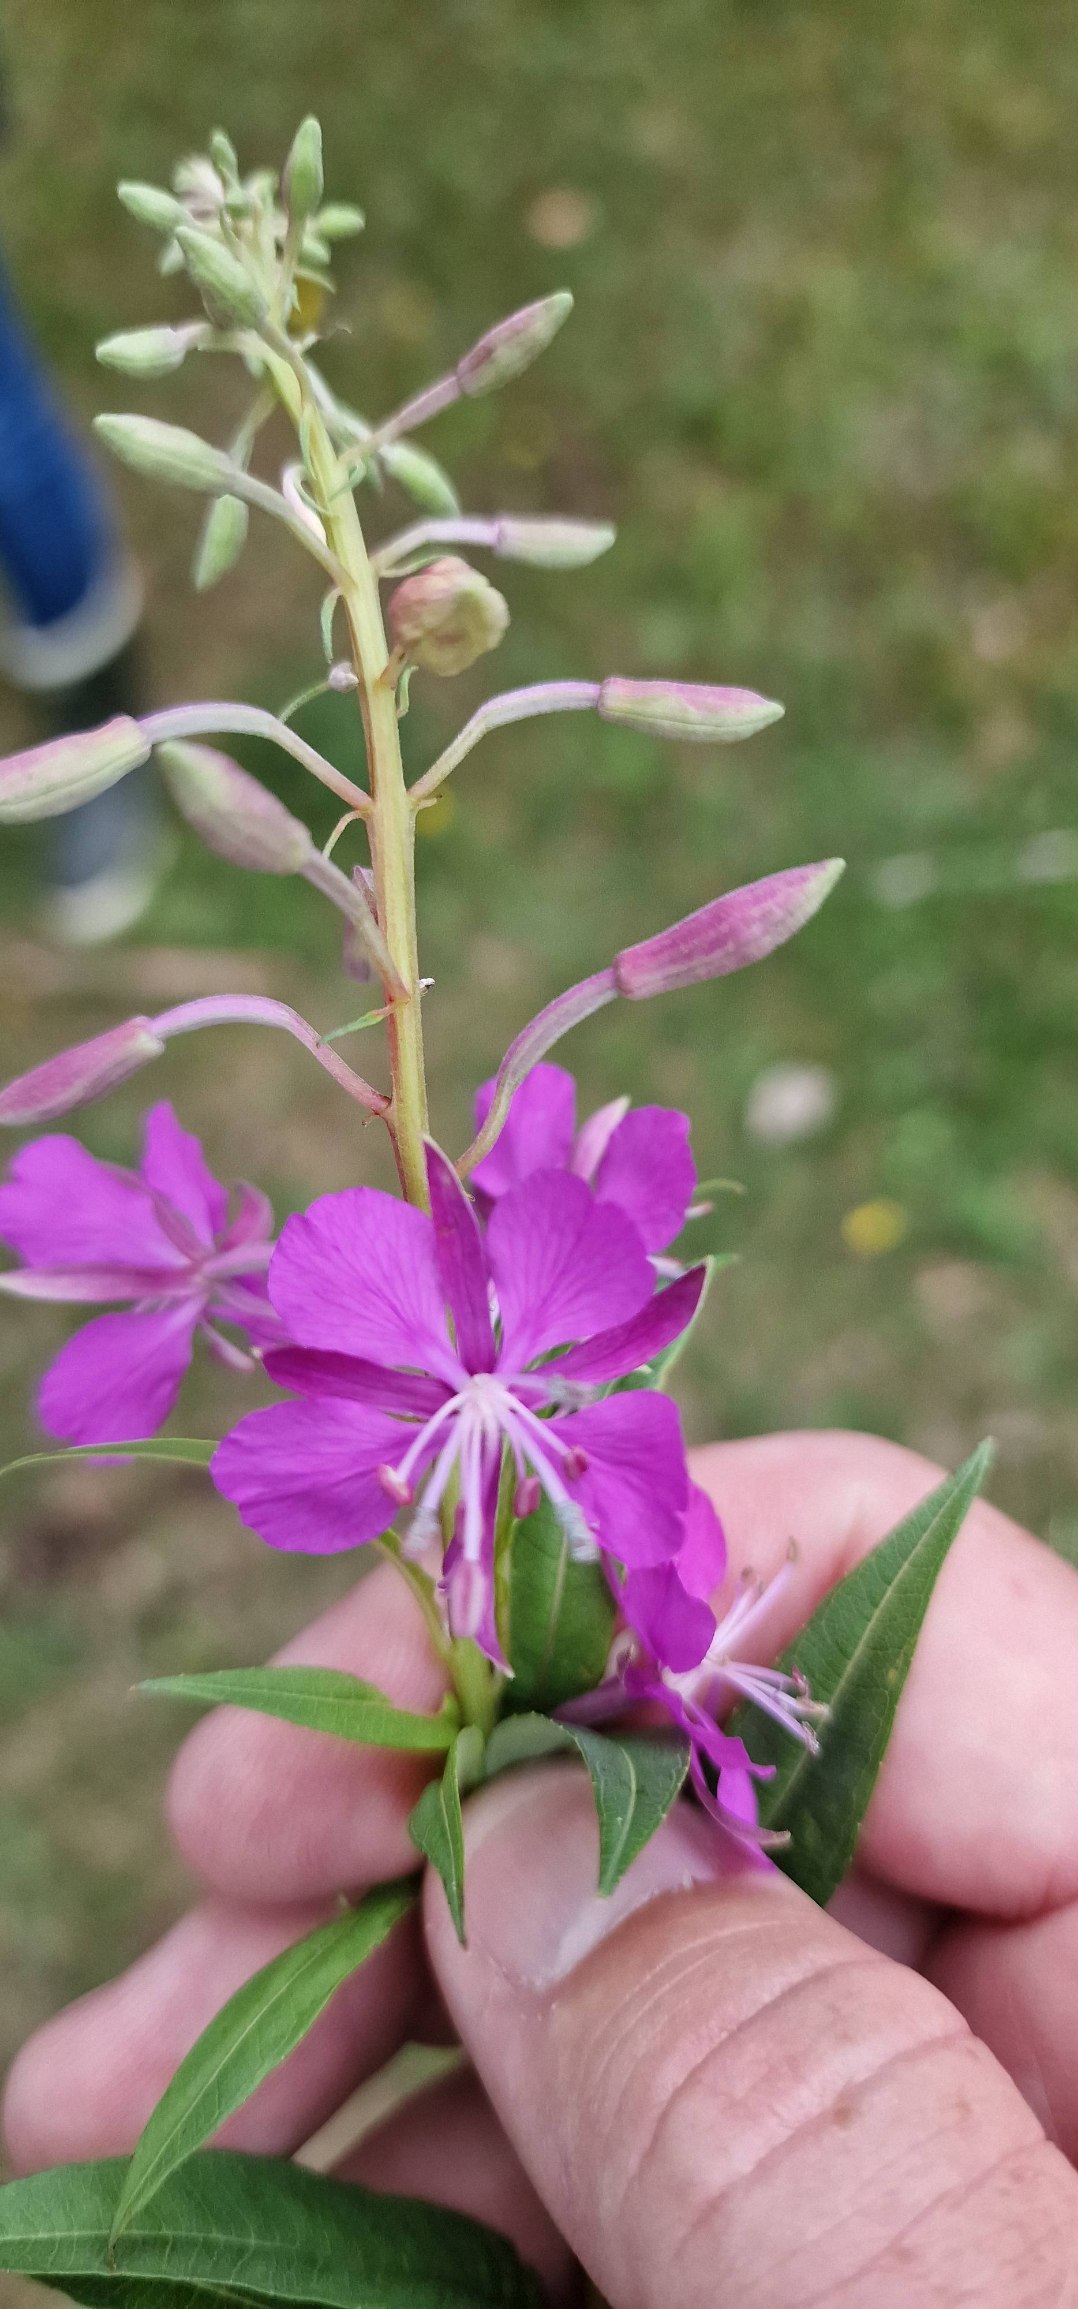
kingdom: Plantae
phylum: Tracheophyta
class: Magnoliopsida
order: Myrtales
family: Onagraceae
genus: Chamaenerion
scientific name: Chamaenerion angustifolium
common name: Gederams
